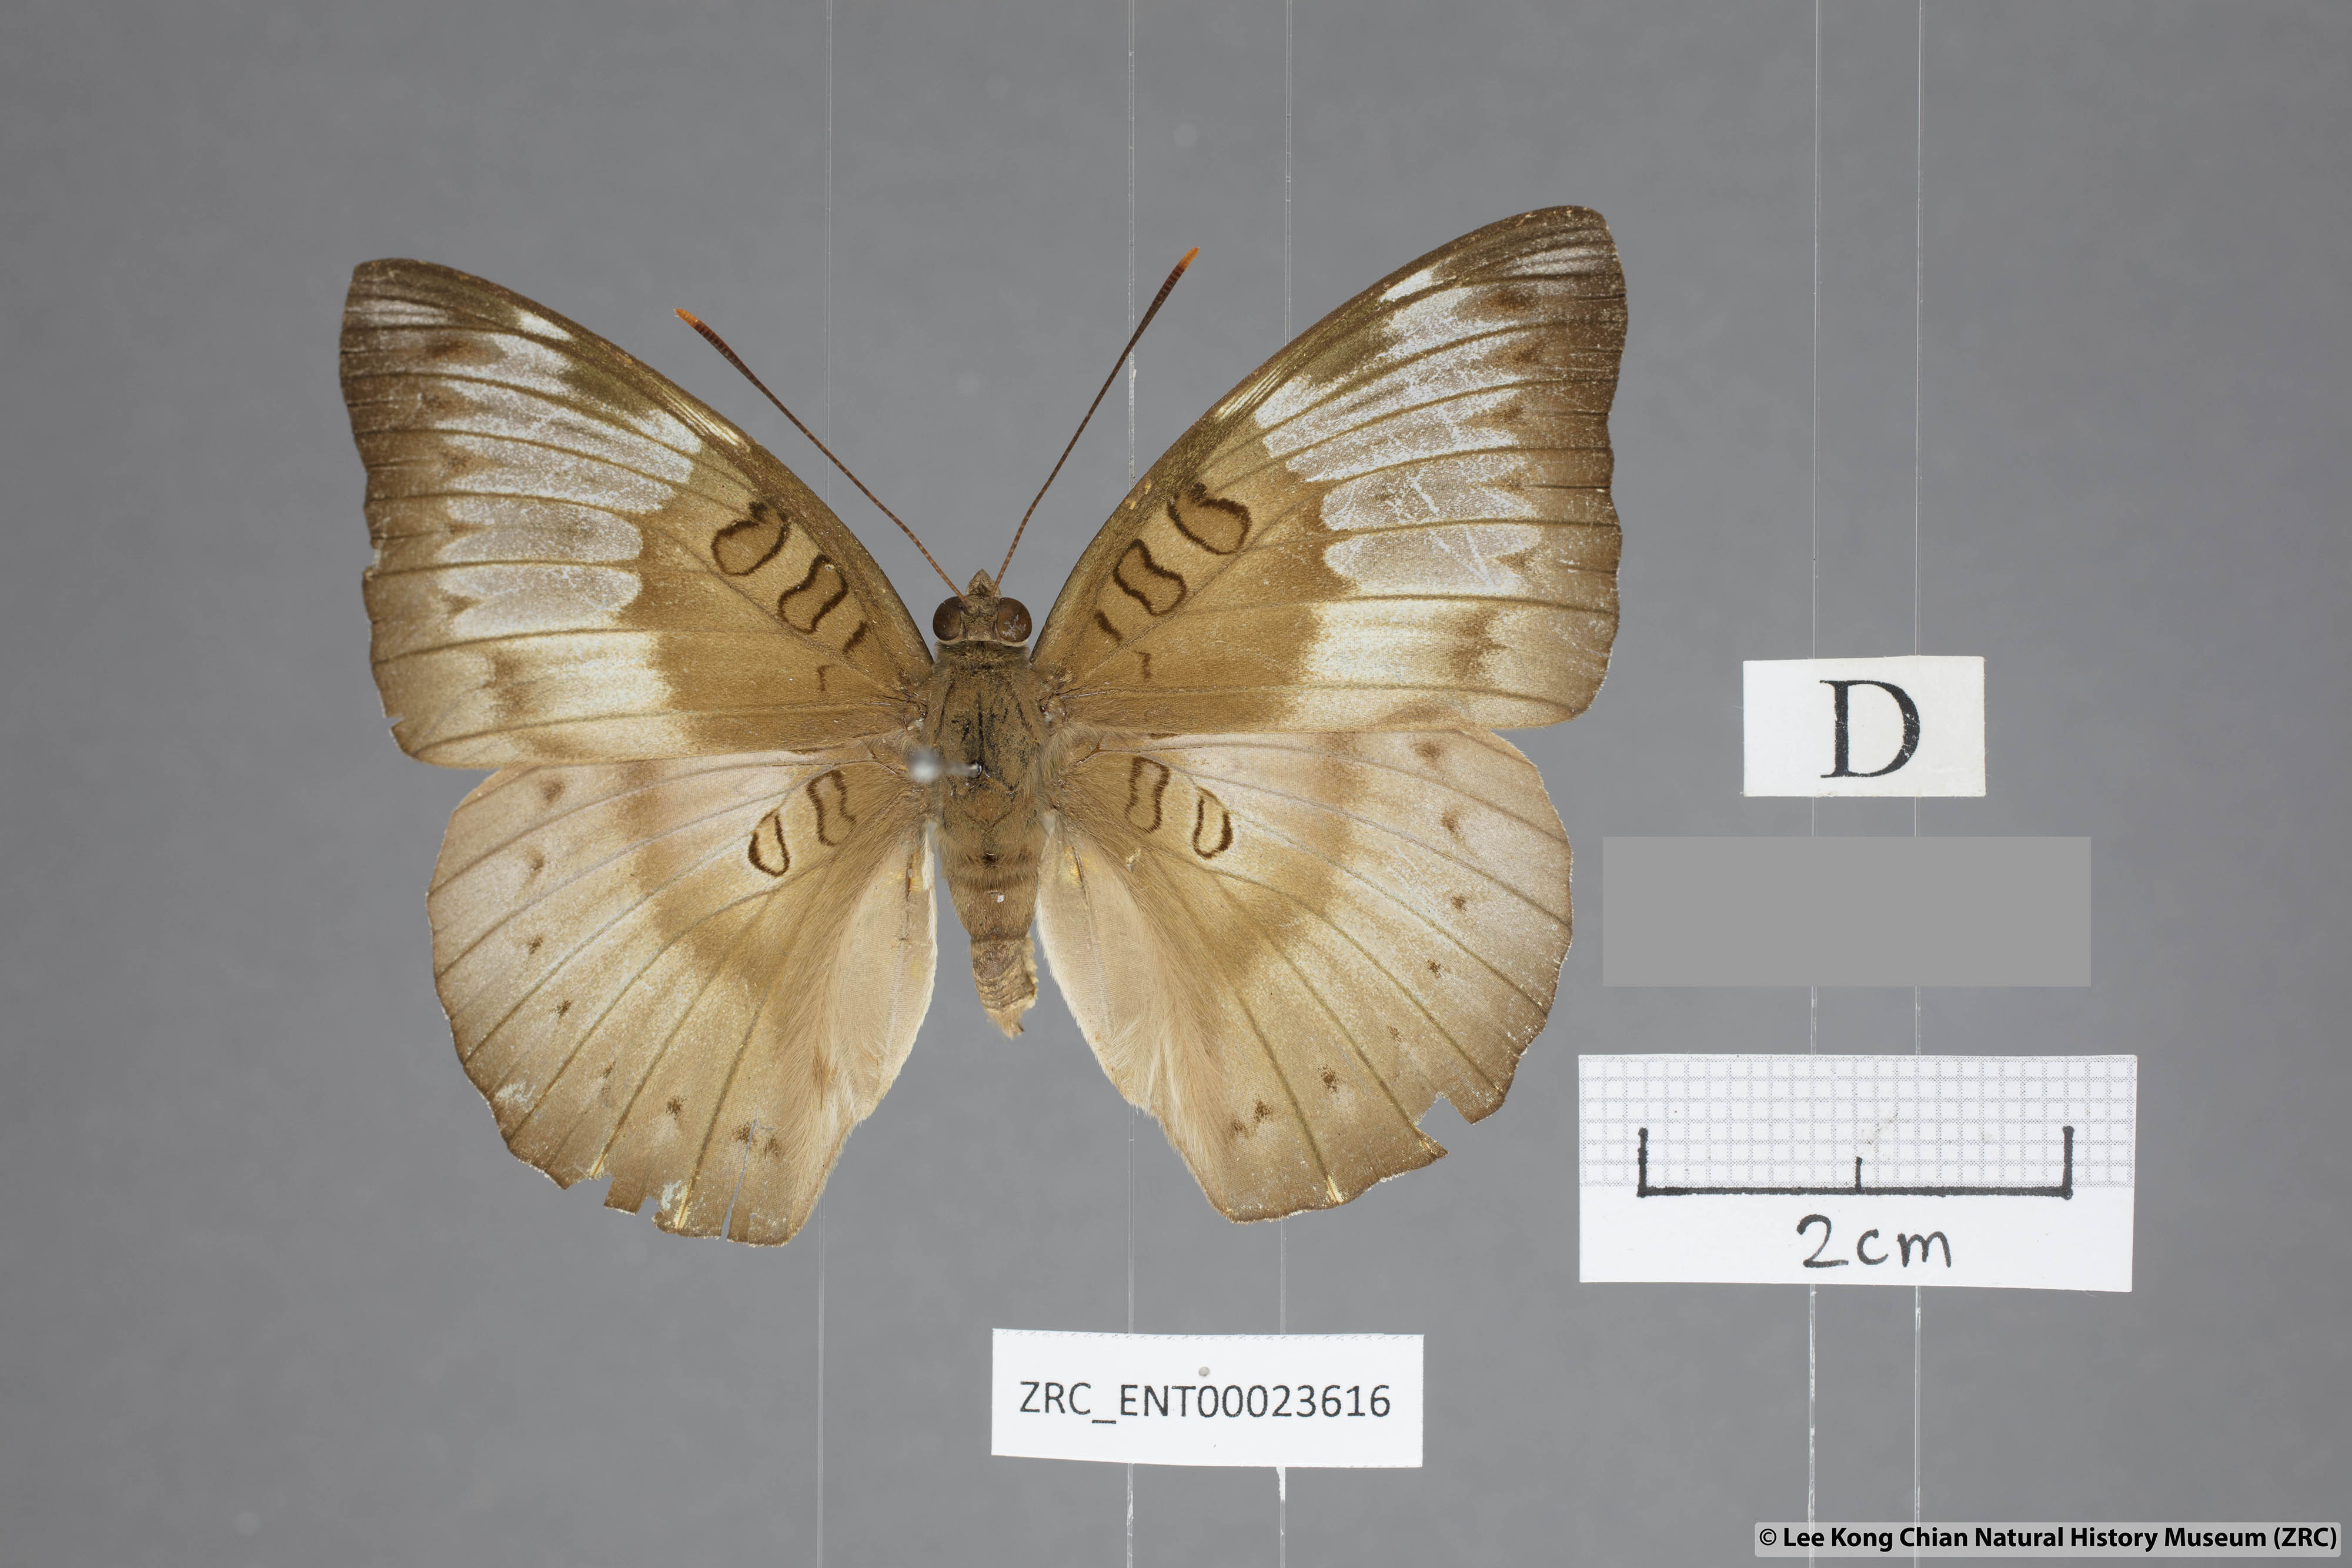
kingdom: Animalia
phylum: Arthropoda
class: Insecta
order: Lepidoptera
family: Nymphalidae
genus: Euthalia
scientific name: Euthalia alpheda
